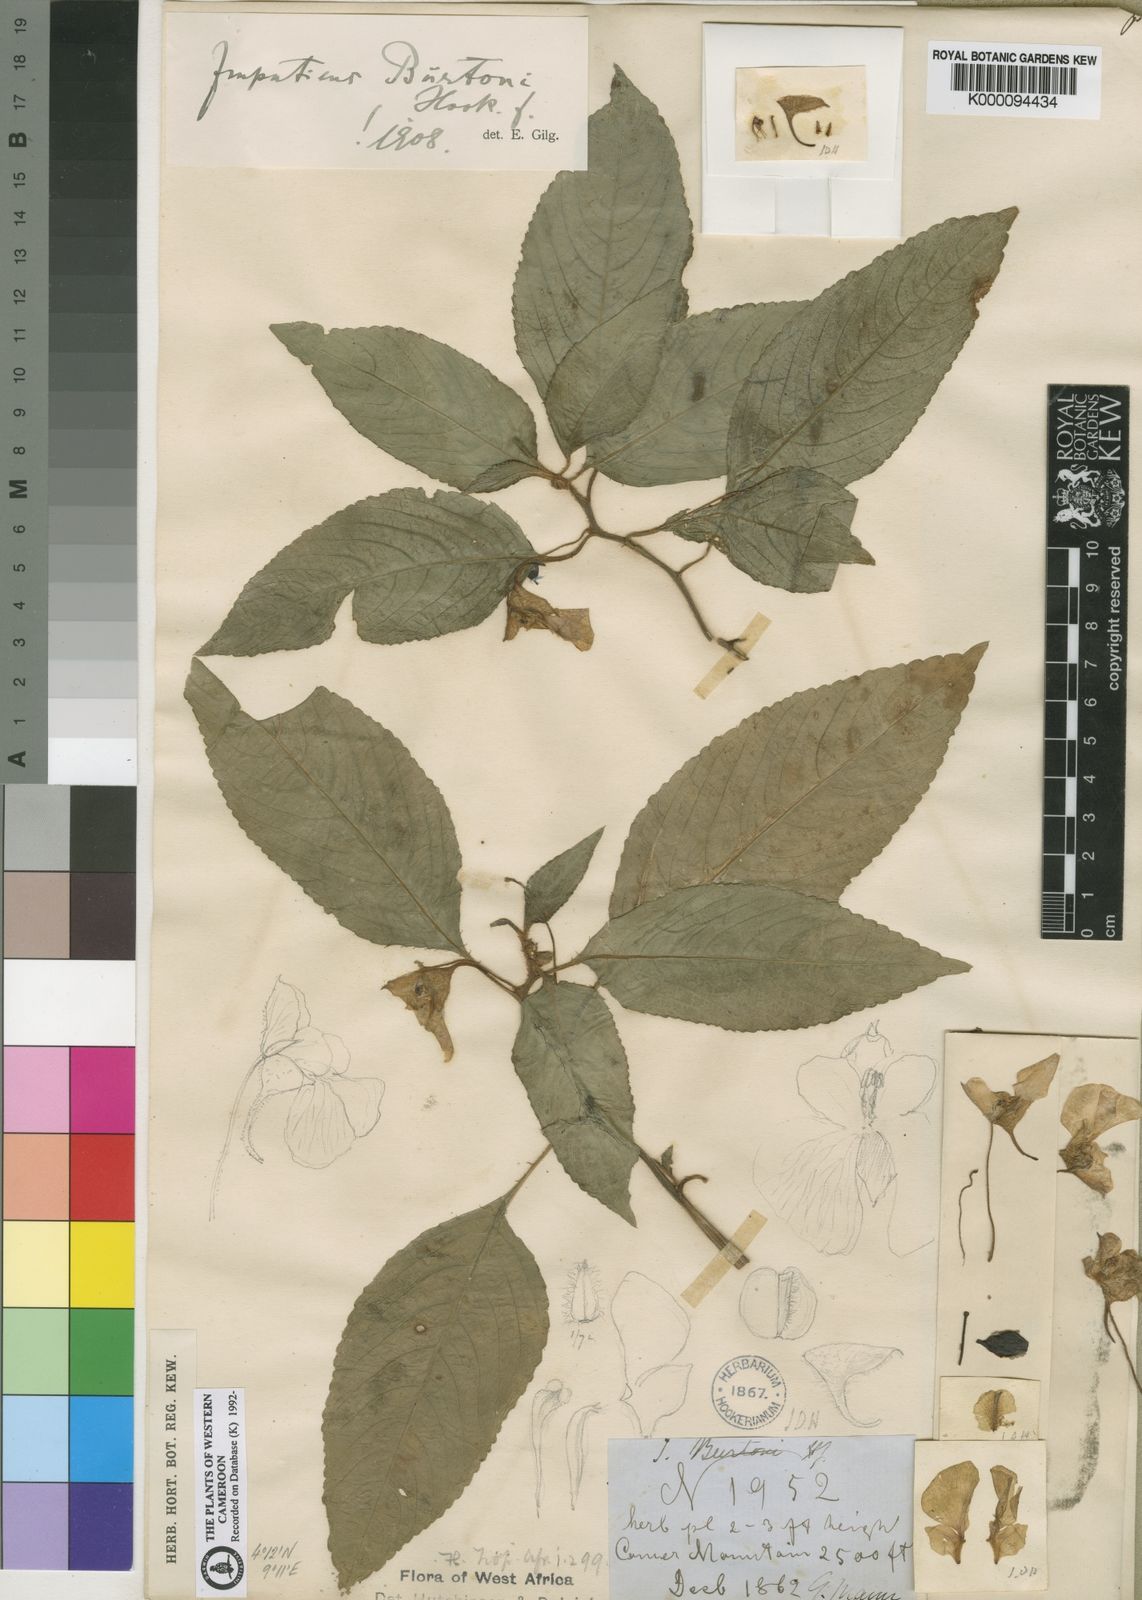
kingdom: Plantae
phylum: Tracheophyta
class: Magnoliopsida
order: Ericales
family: Balsaminaceae
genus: Impatiens
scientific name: Impatiens burtonii
